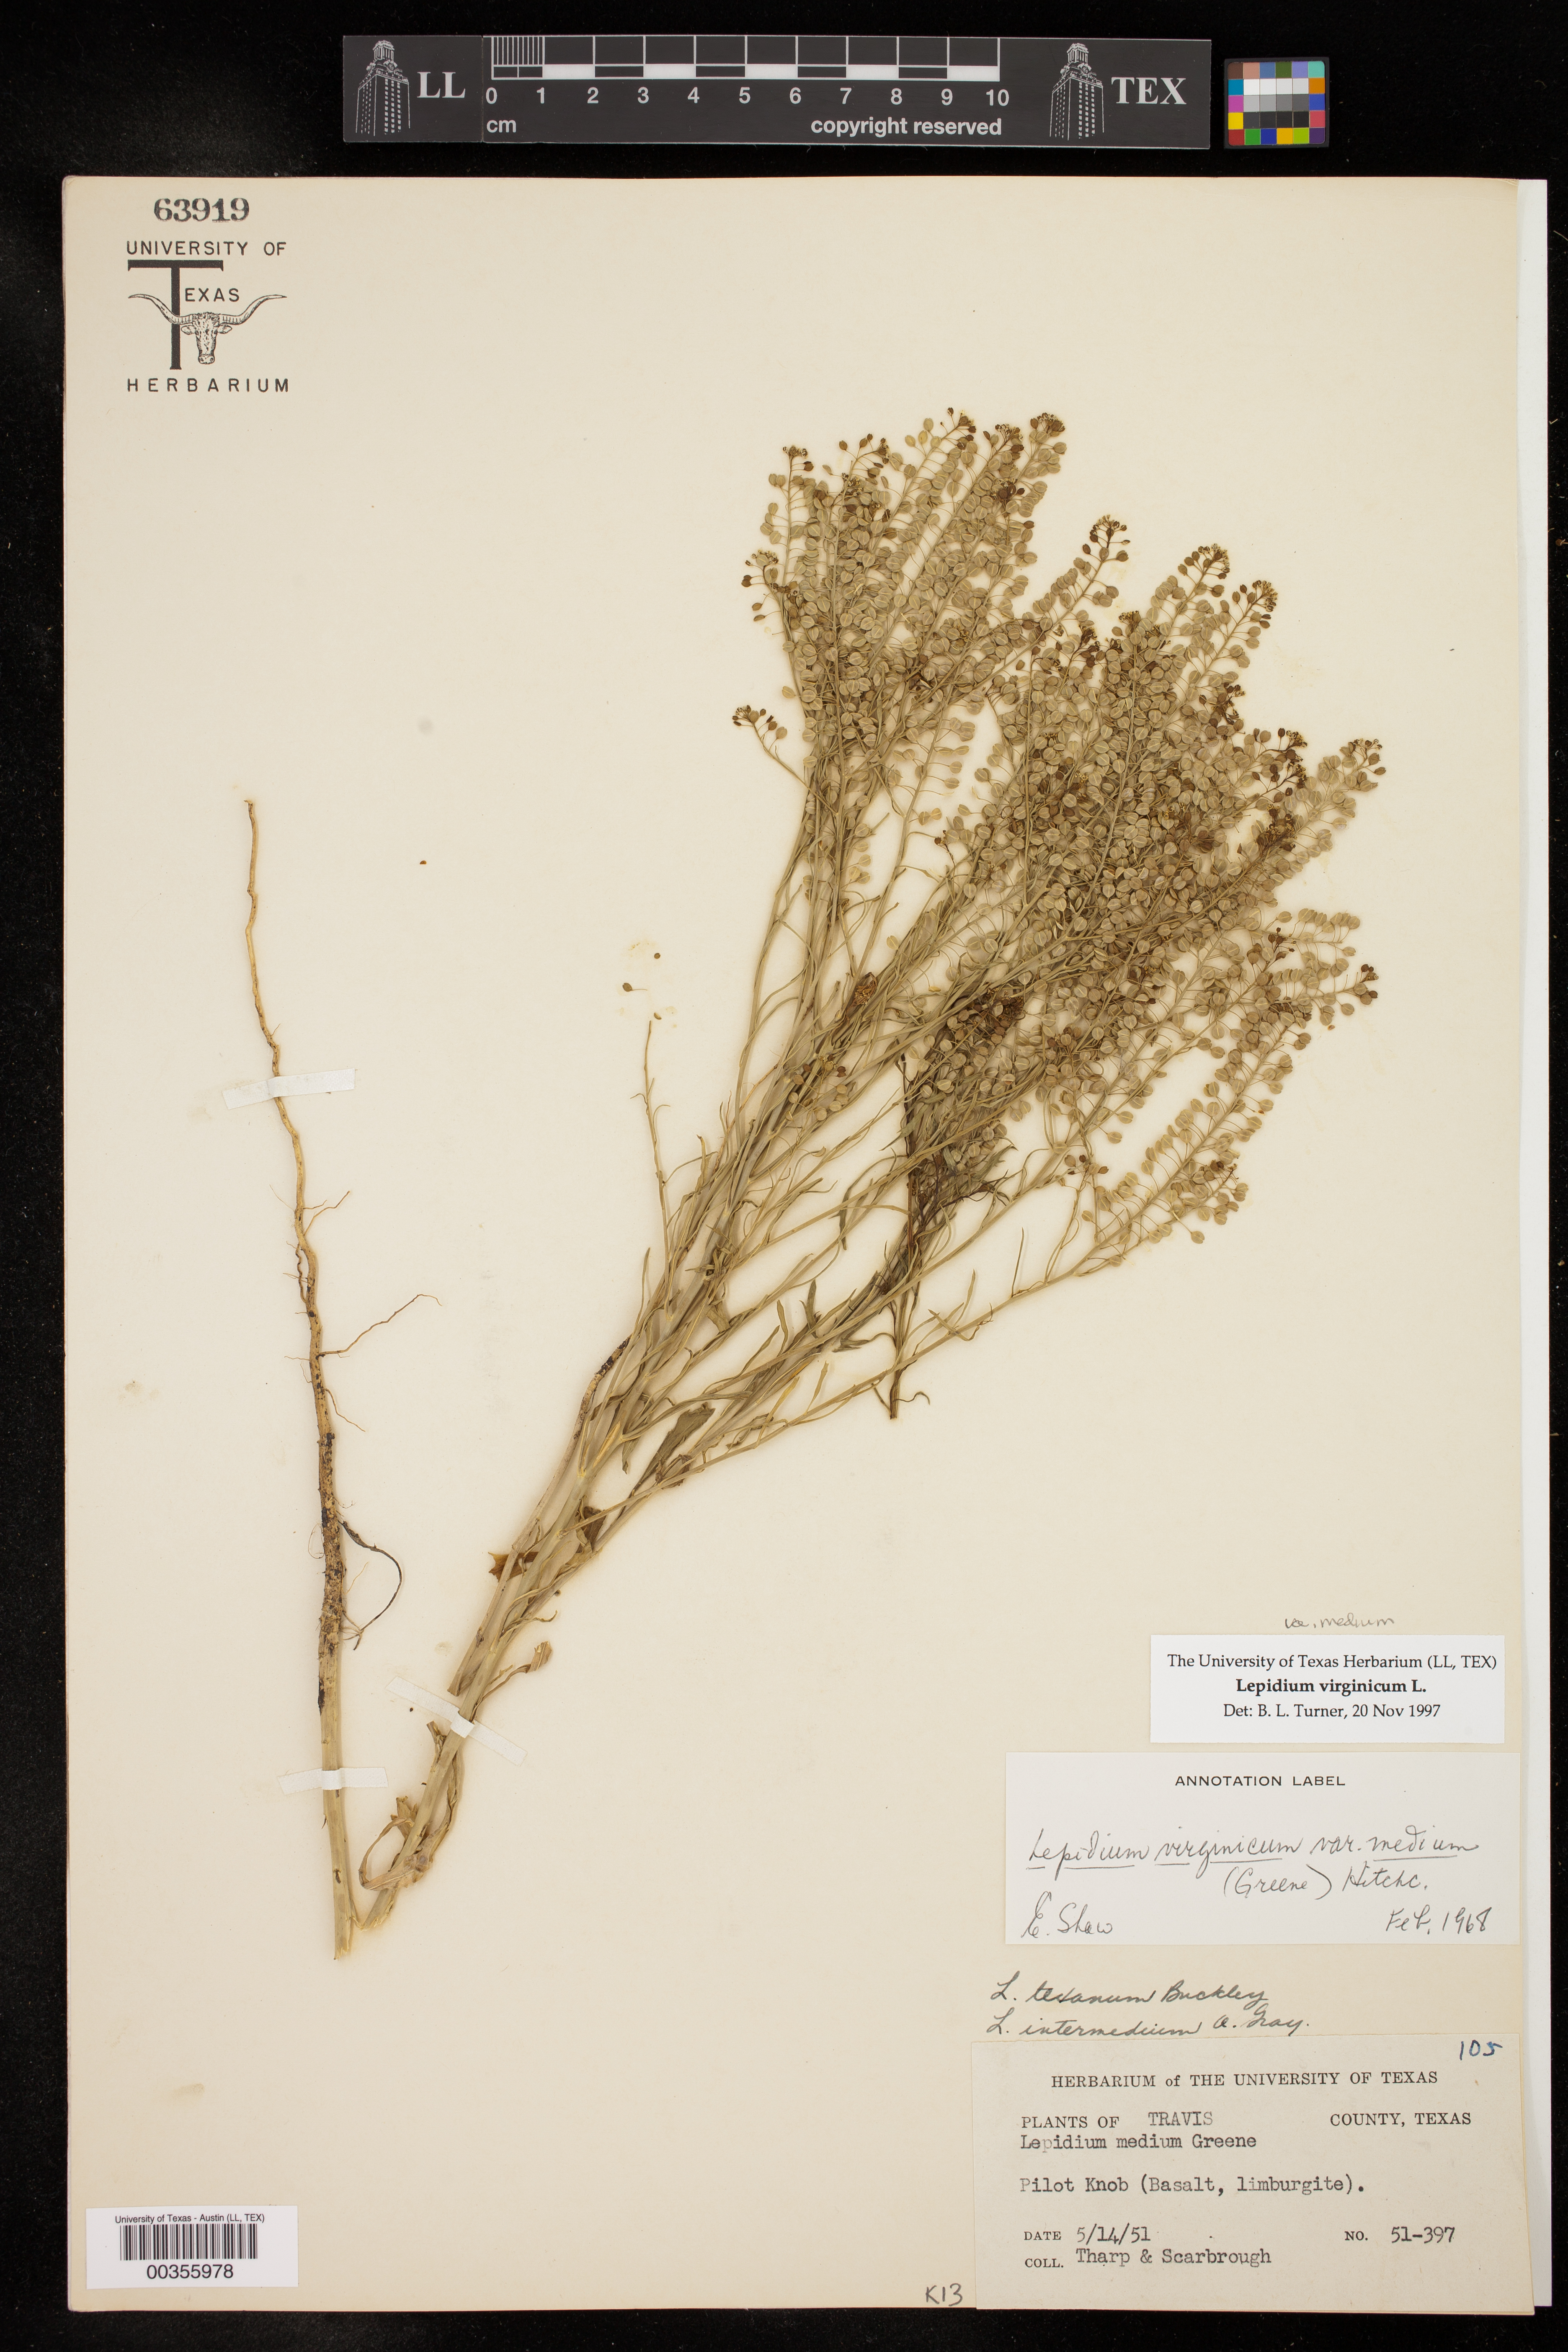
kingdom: Plantae
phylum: Tracheophyta
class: Magnoliopsida
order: Brassicales
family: Brassicaceae
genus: Lepidium
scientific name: Lepidium virginicum
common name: Least pepperwort
